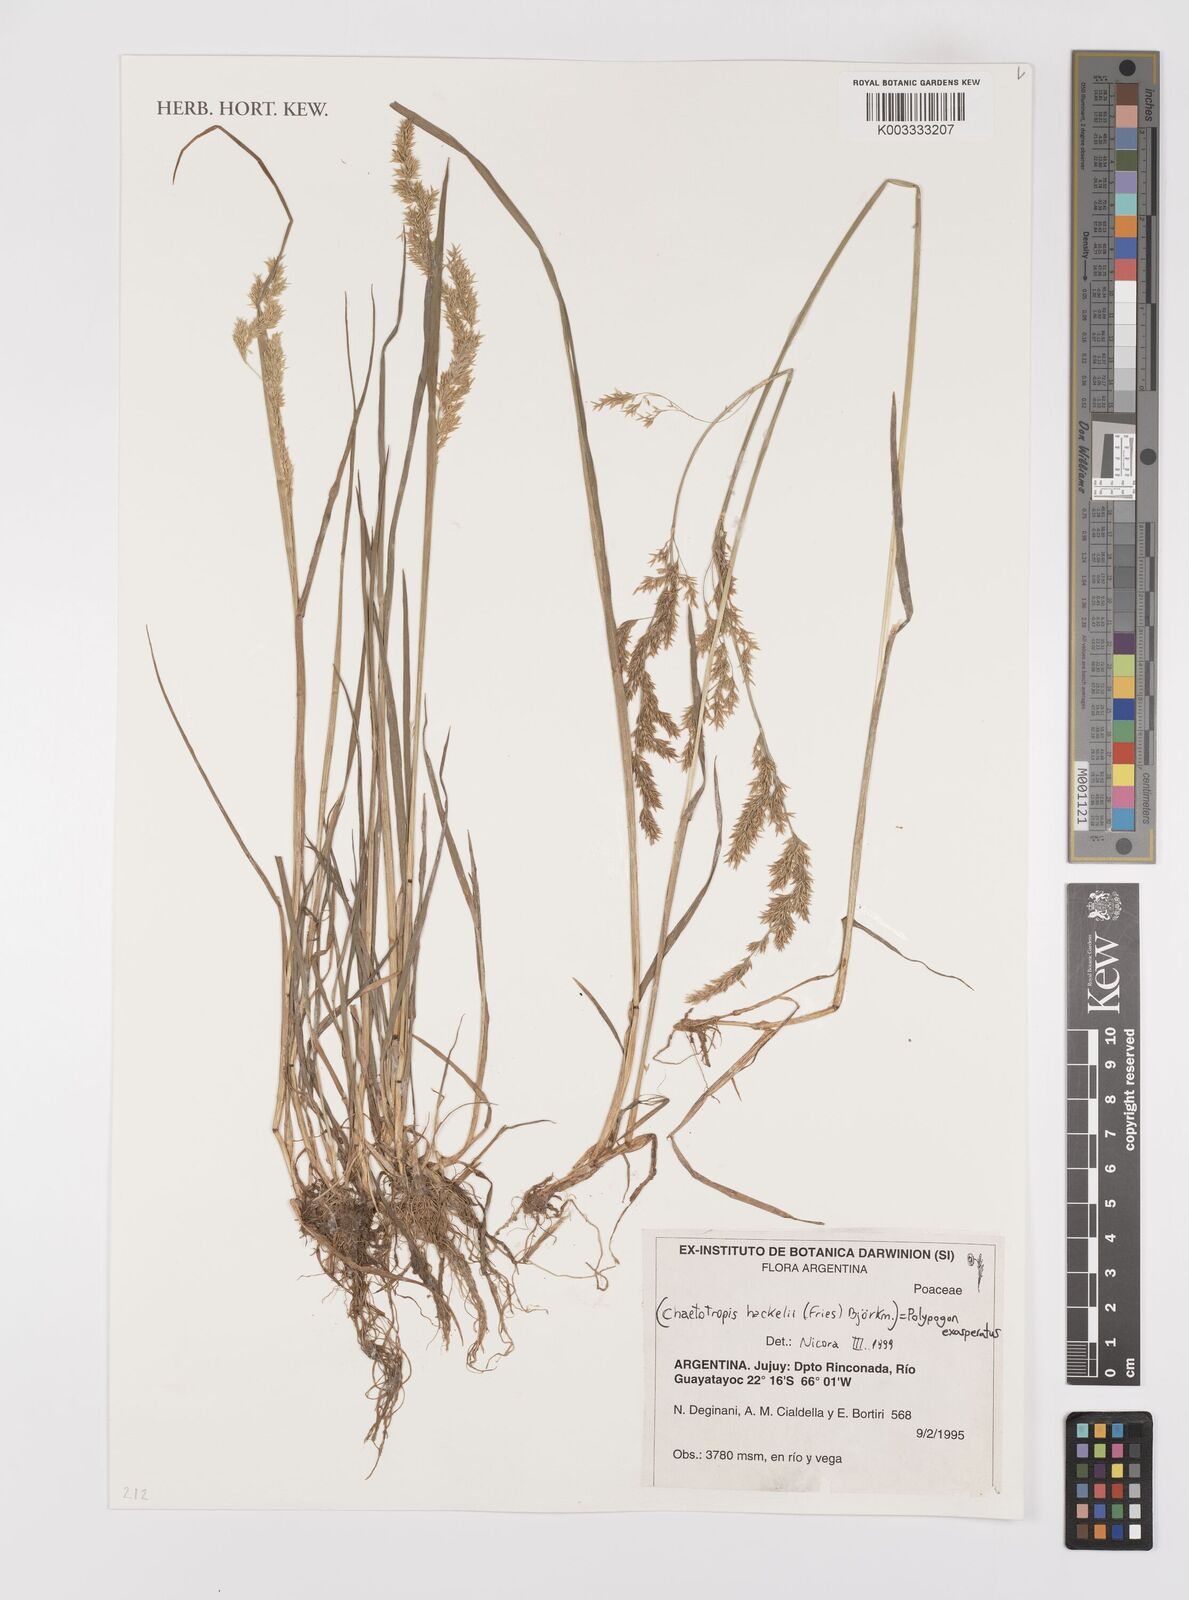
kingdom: Plantae
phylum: Tracheophyta
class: Liliopsida
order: Poales
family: Poaceae
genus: Polypogon
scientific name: Polypogon exasperatus
